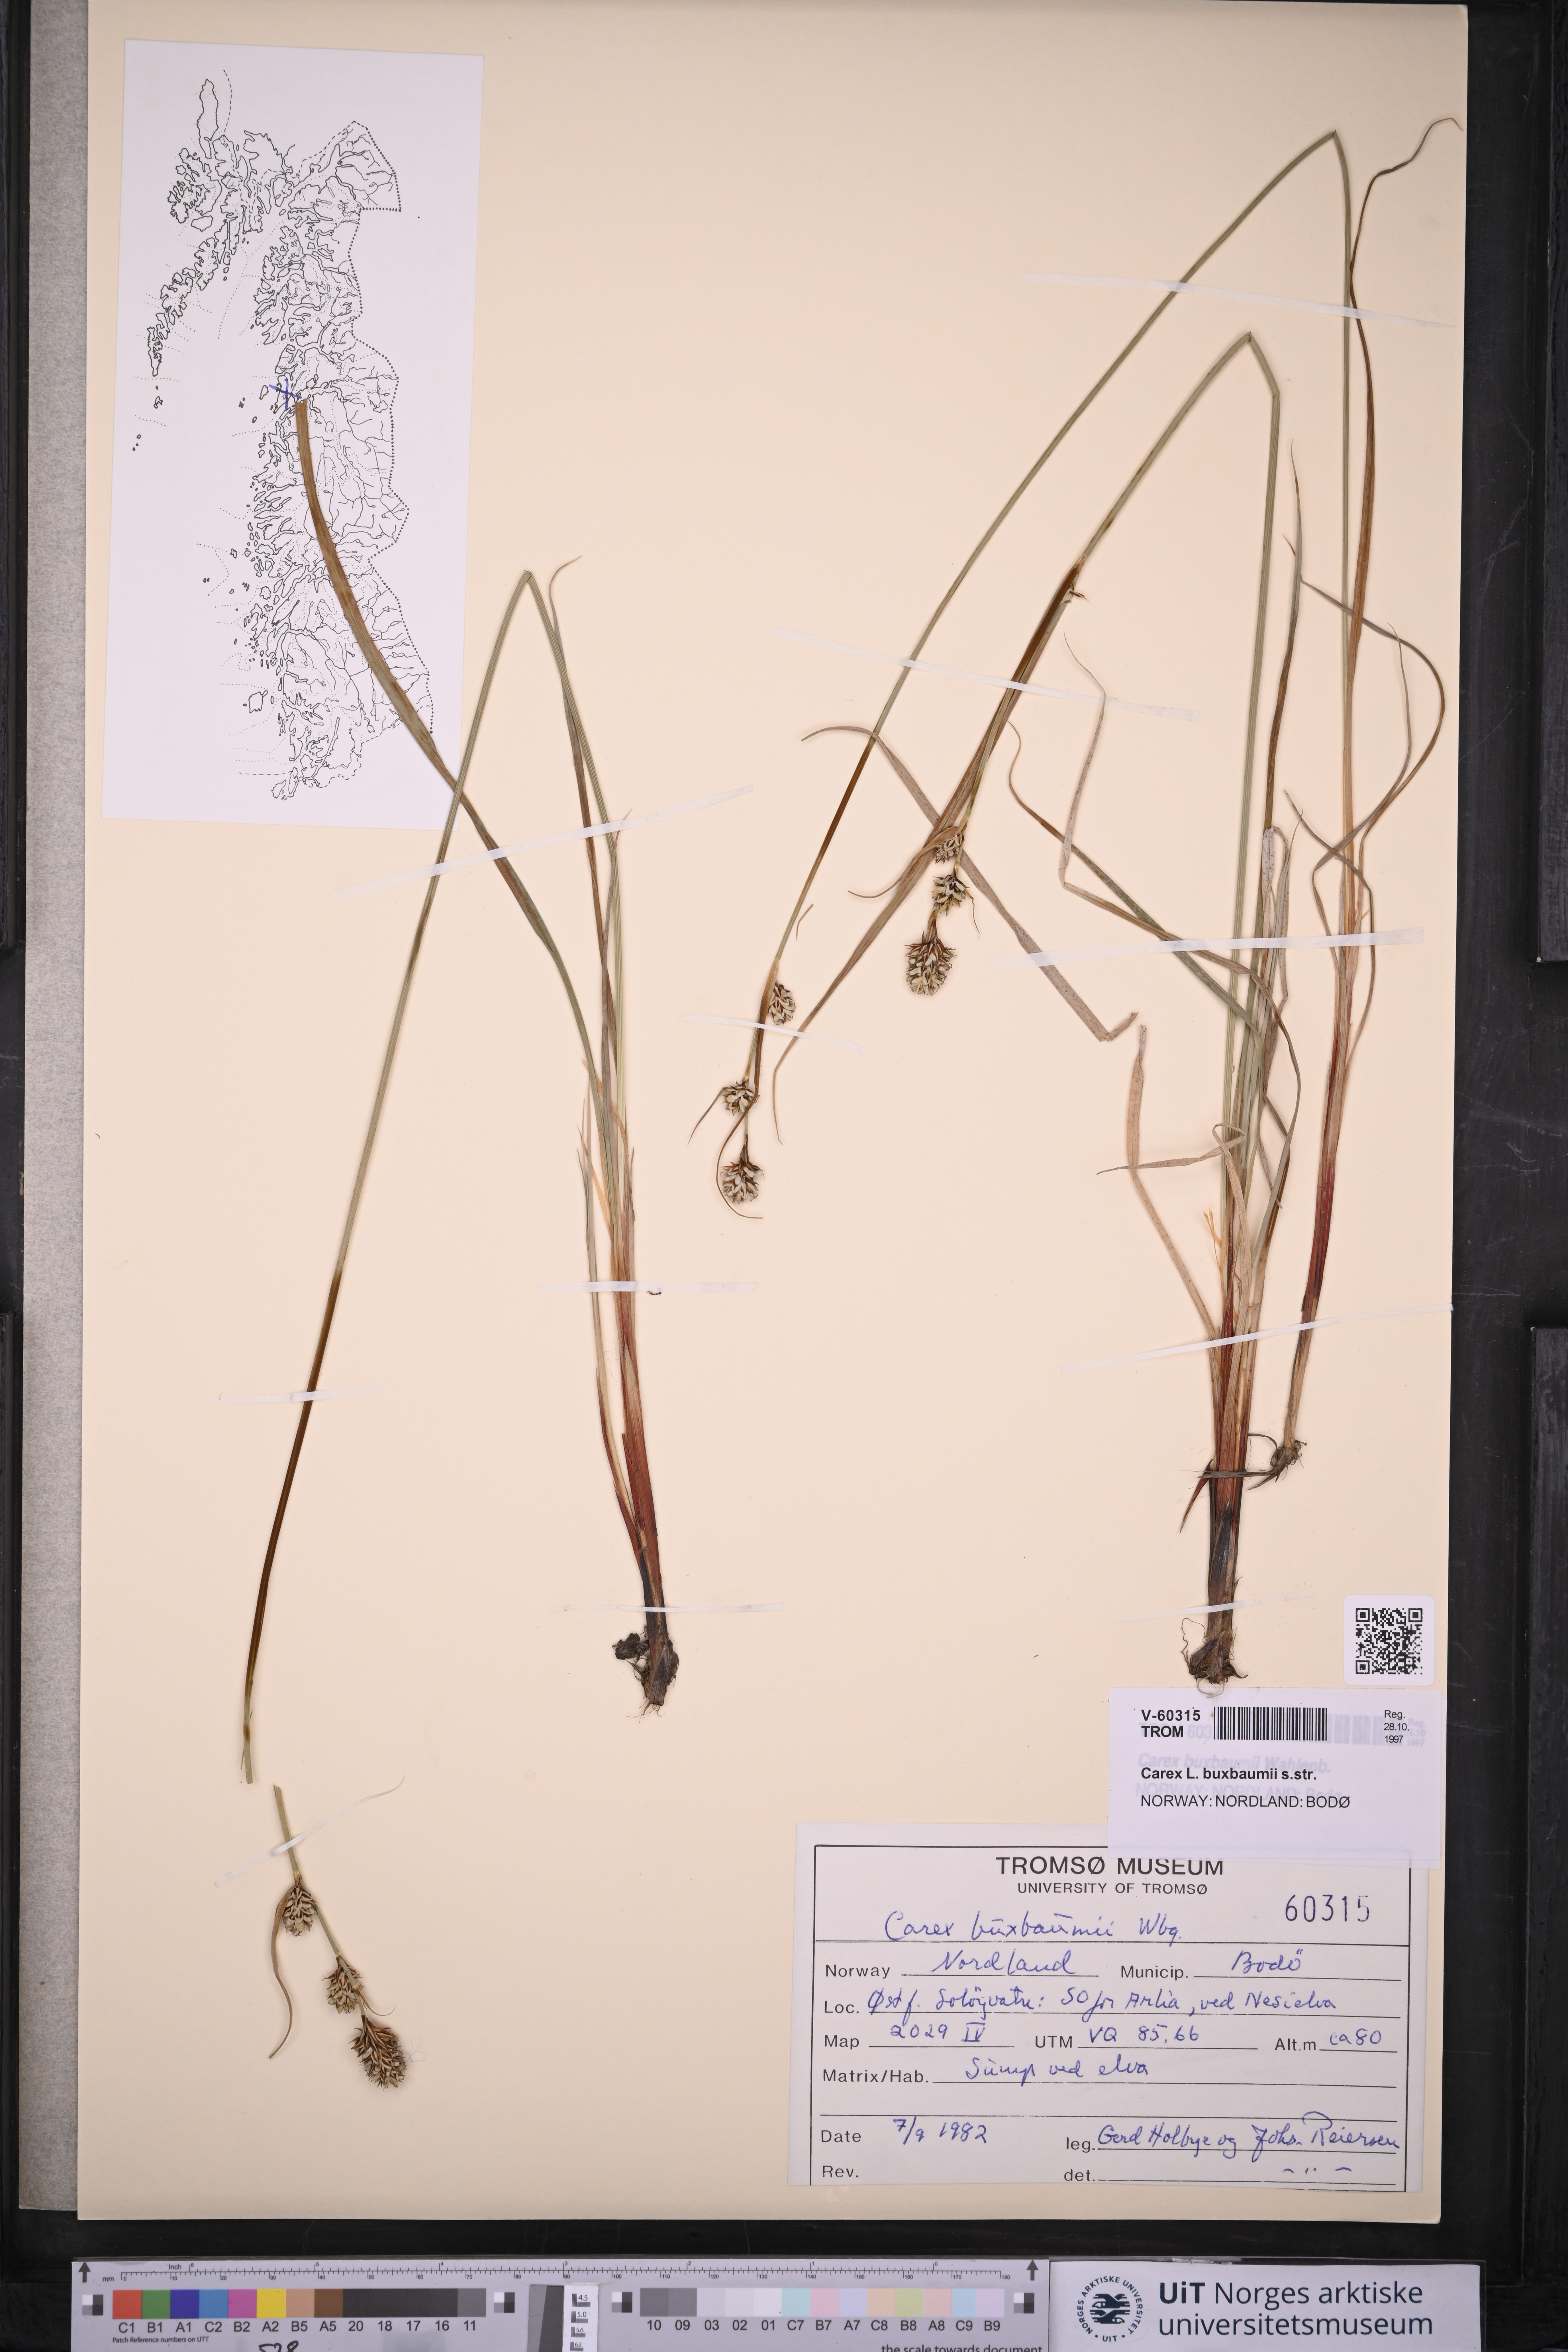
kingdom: Plantae
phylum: Tracheophyta
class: Liliopsida
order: Poales
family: Cyperaceae
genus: Carex
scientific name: Carex buxbaumii
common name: Club sedge
